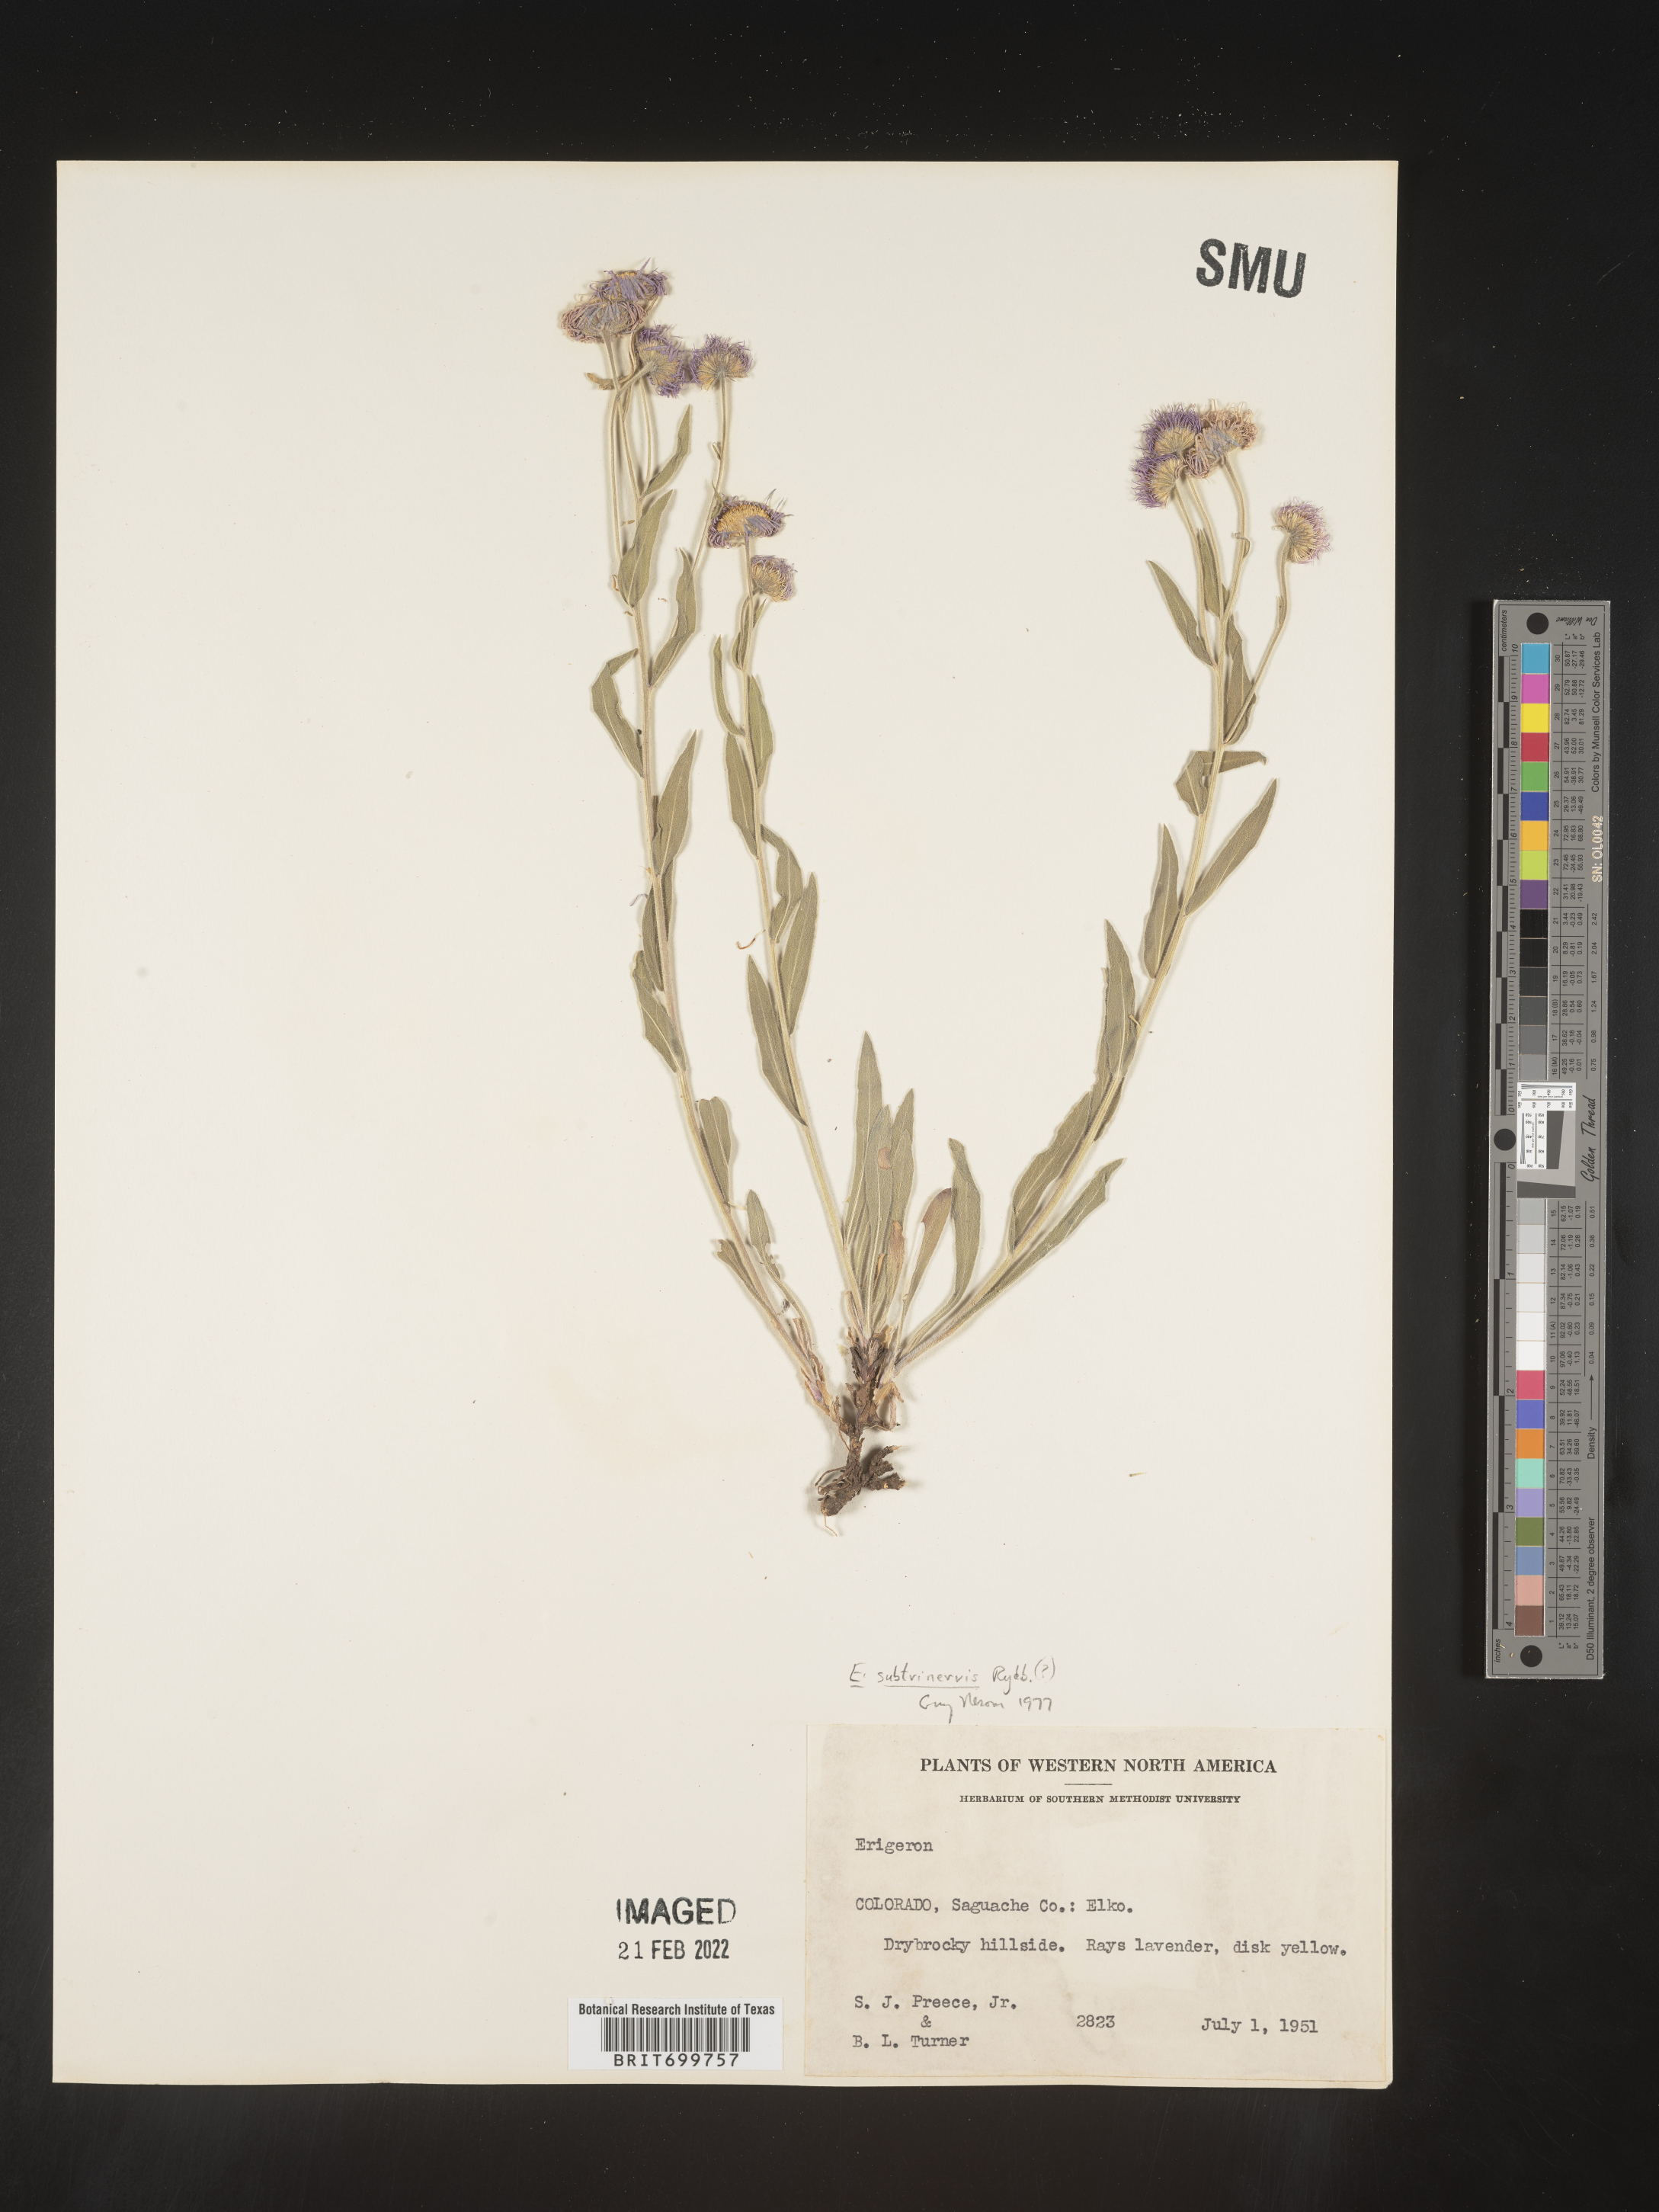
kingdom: Plantae
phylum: Tracheophyta
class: Magnoliopsida
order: Asterales
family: Asteraceae
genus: Erigeron
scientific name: Erigeron subtrinervis
